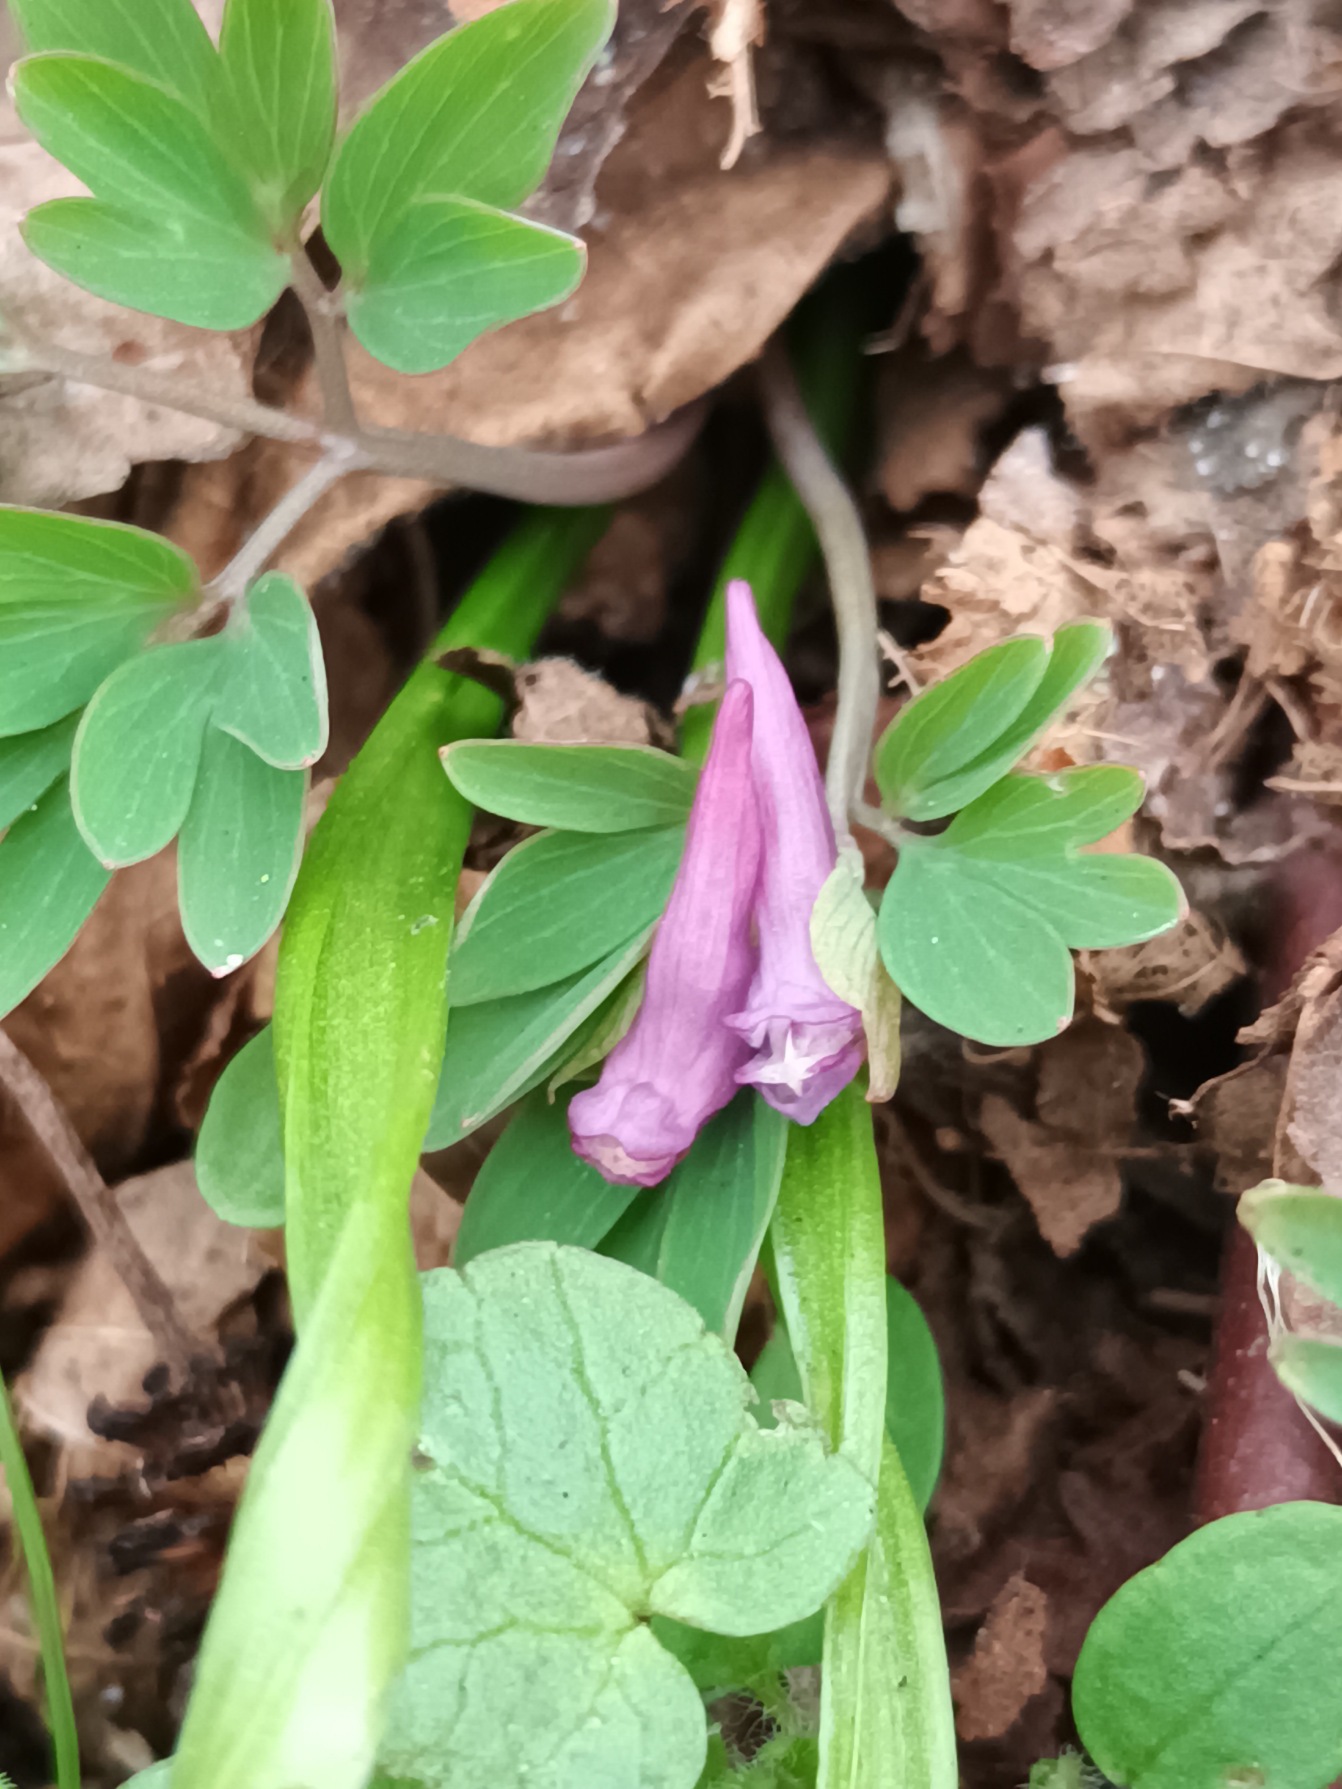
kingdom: Plantae
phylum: Tracheophyta
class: Magnoliopsida
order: Ranunculales
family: Papaveraceae
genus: Corydalis
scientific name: Corydalis intermedia
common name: Liden lærkespore
